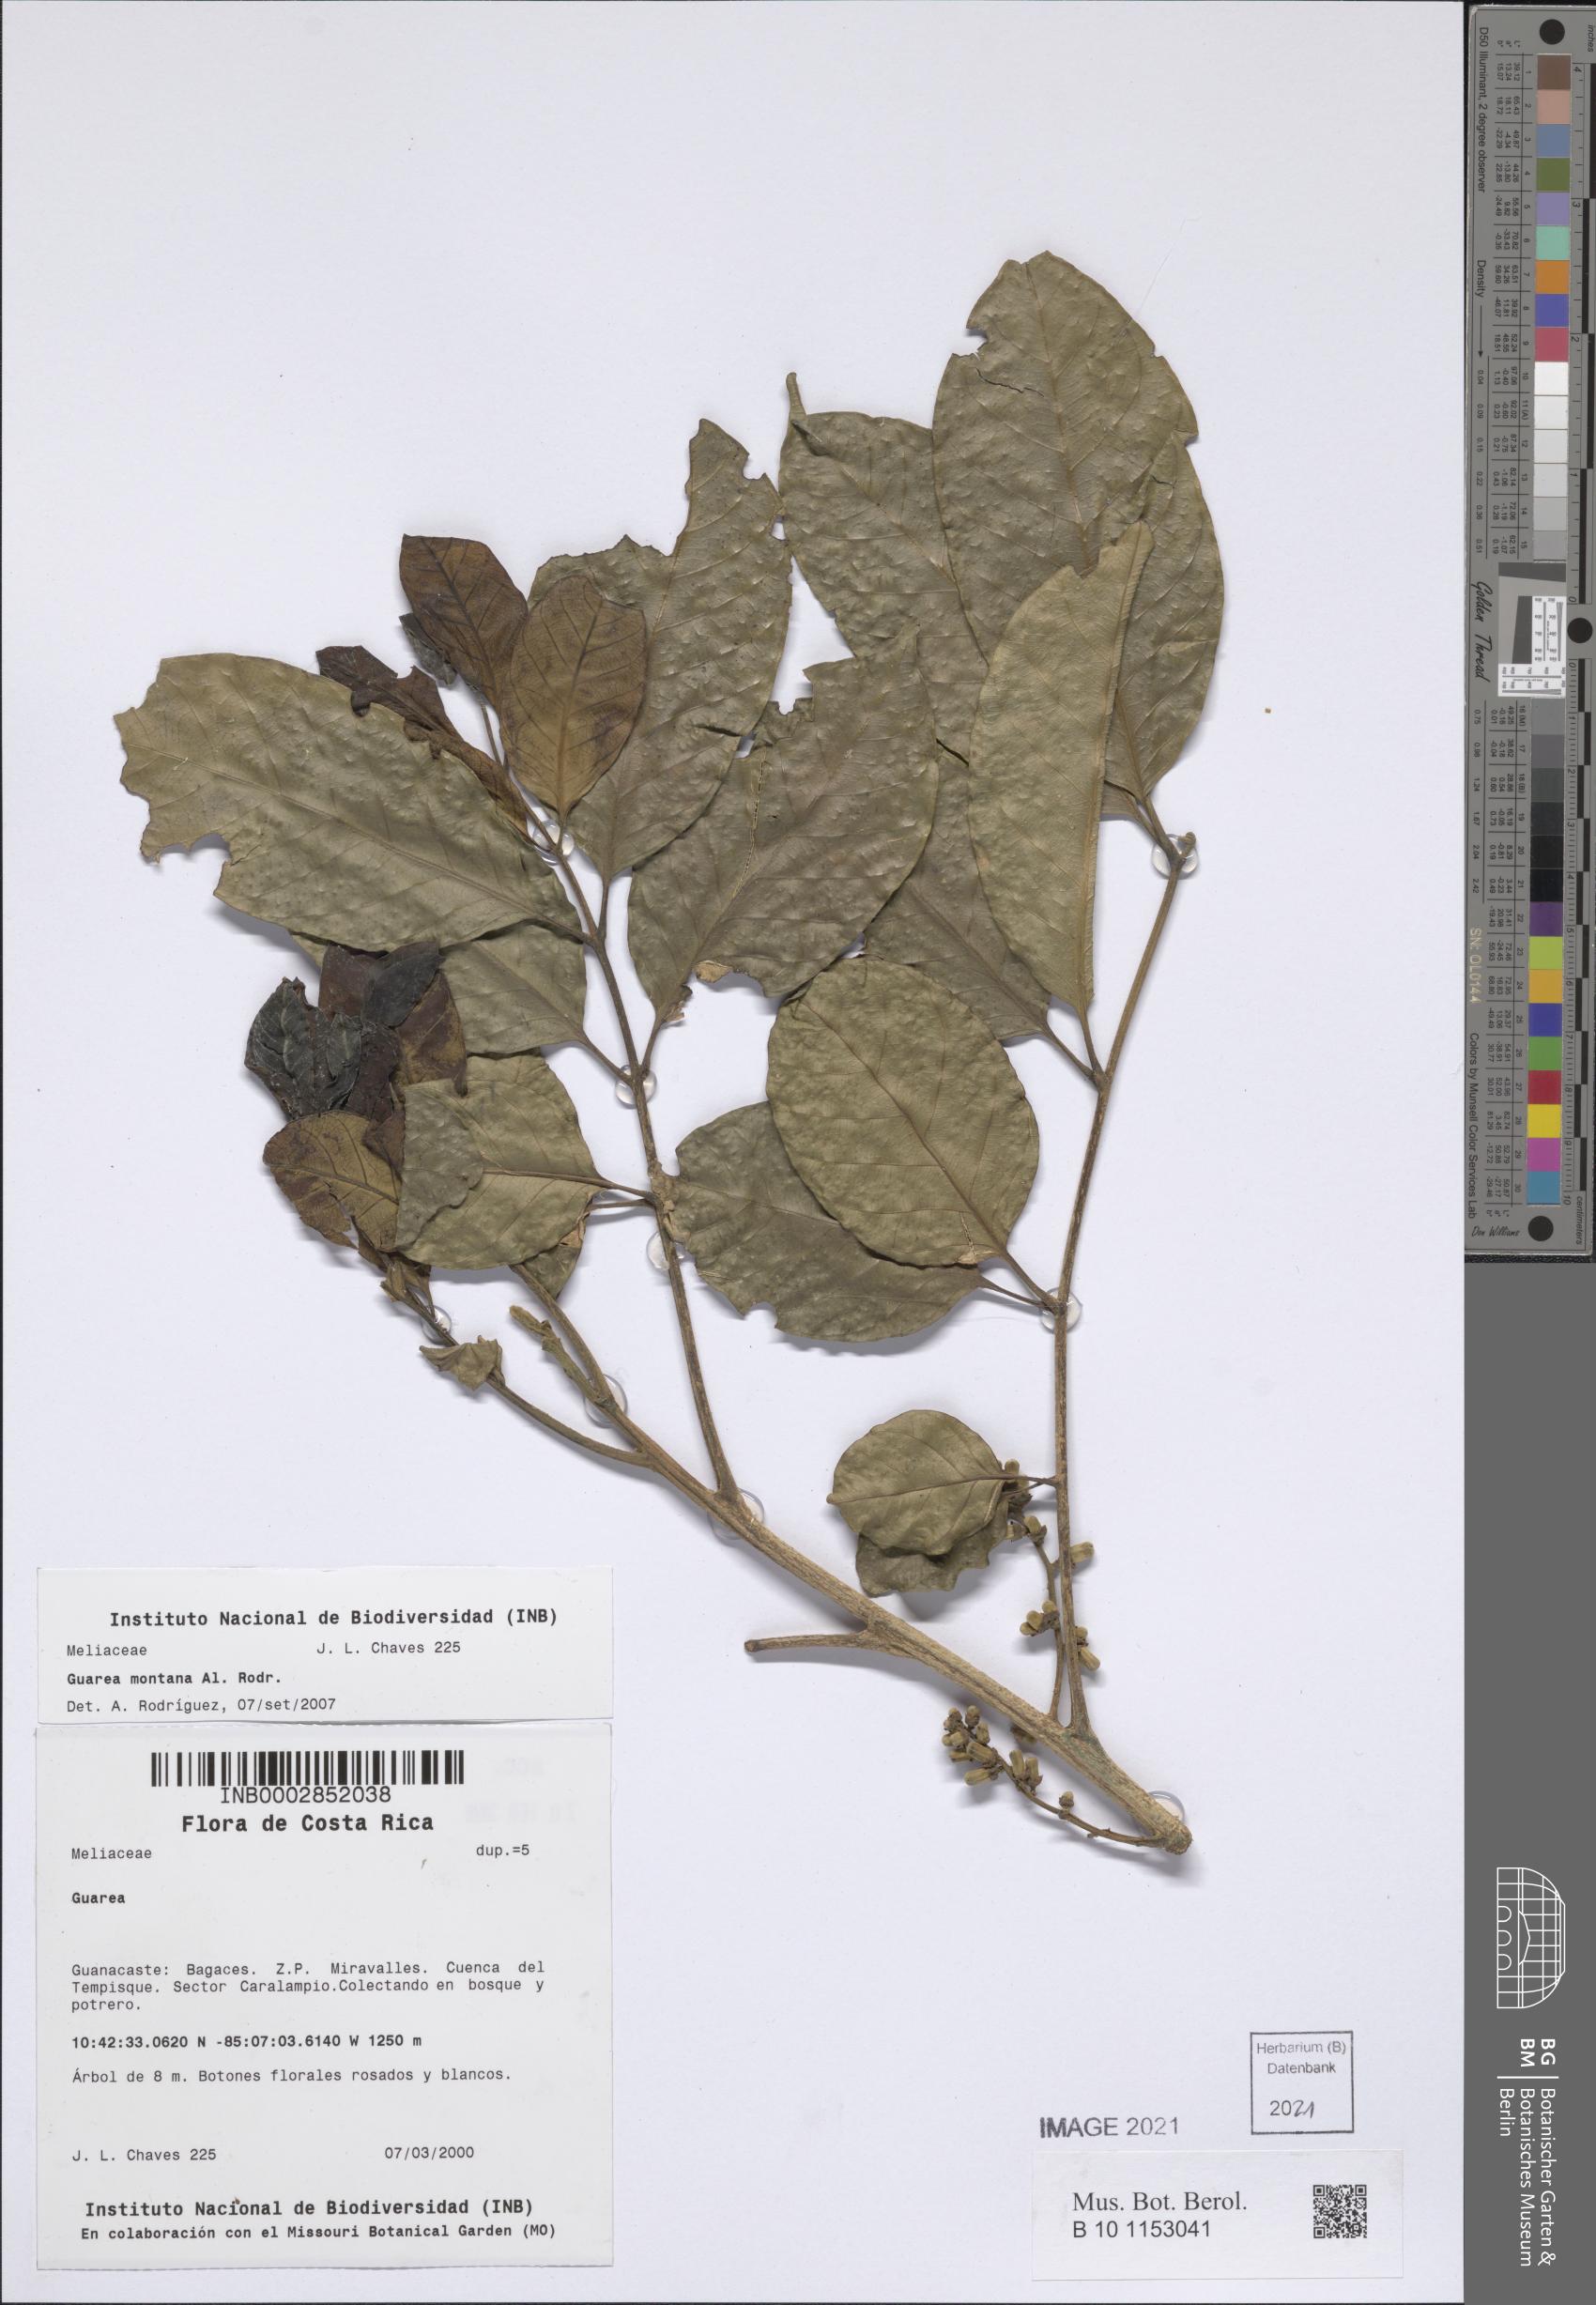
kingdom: Plantae
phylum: Tracheophyta
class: Magnoliopsida
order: Sapindales
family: Meliaceae
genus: Guarea
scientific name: Guarea rhopalocarpa
